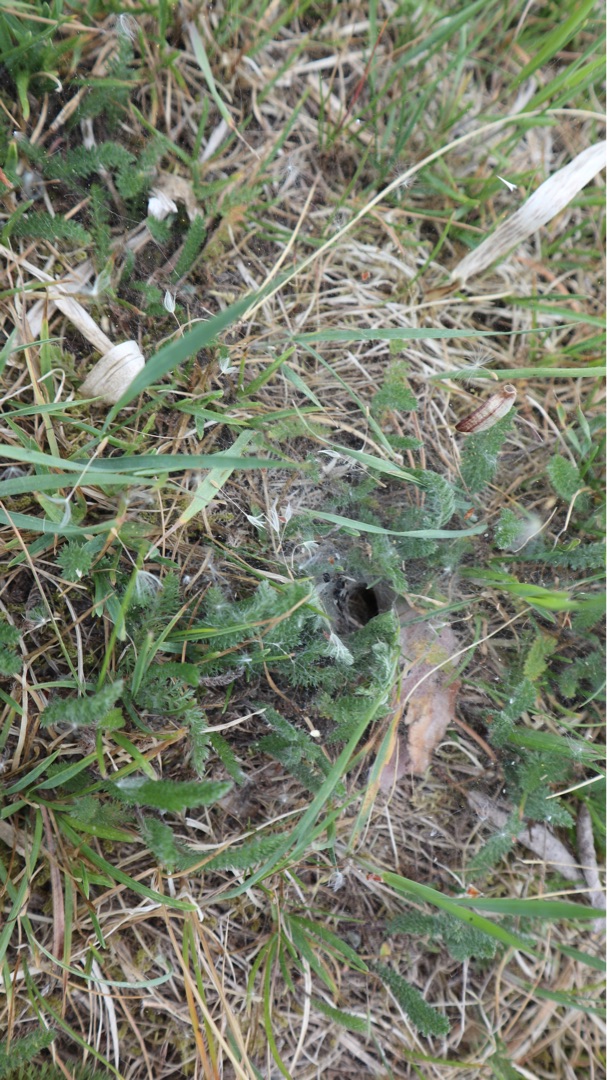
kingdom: Animalia
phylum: Arthropoda
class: Arachnida
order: Araneae
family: Agelenidae
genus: Agelena
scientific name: Agelena labyrinthica
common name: Labyrintedderkop
